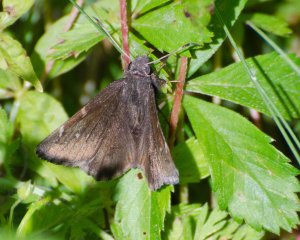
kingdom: Animalia
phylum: Arthropoda
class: Insecta
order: Lepidoptera
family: Hesperiidae
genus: Autochton
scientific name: Autochton
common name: Northern Cloudywing
